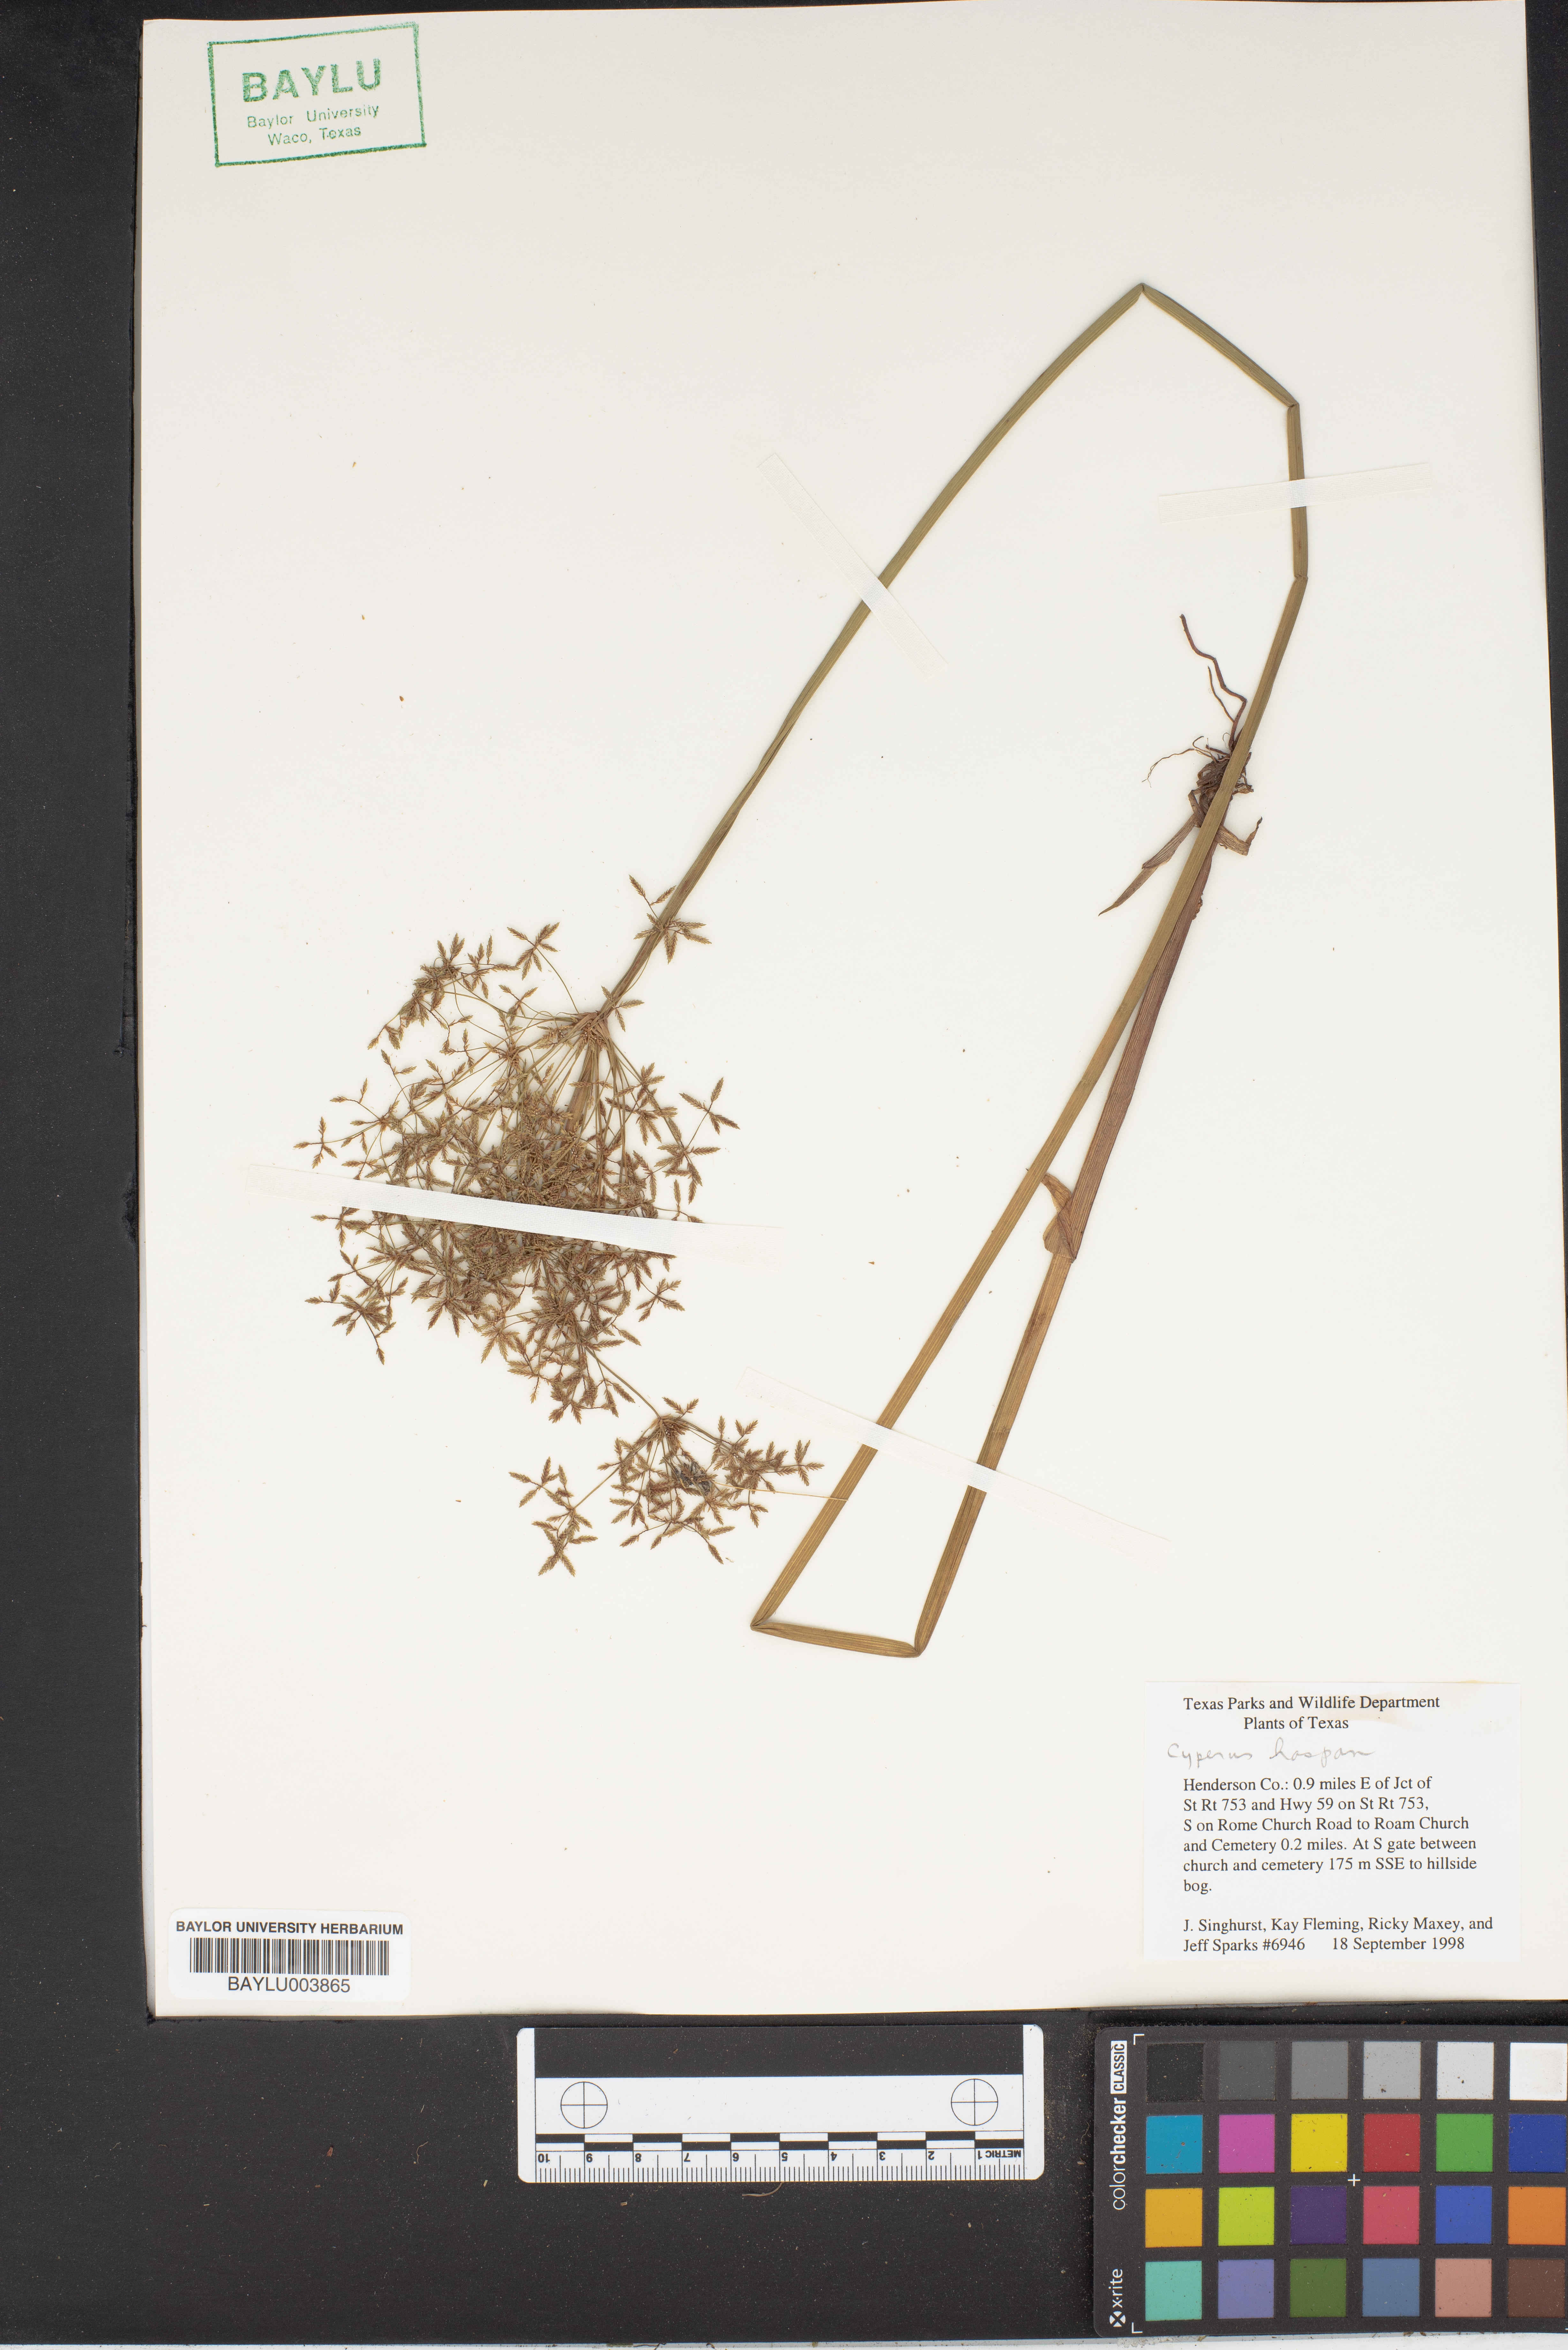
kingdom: Plantae
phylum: Tracheophyta
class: Liliopsida
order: Poales
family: Cyperaceae
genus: Cyperus
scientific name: Cyperus haspan
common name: Haspan flatsedge
